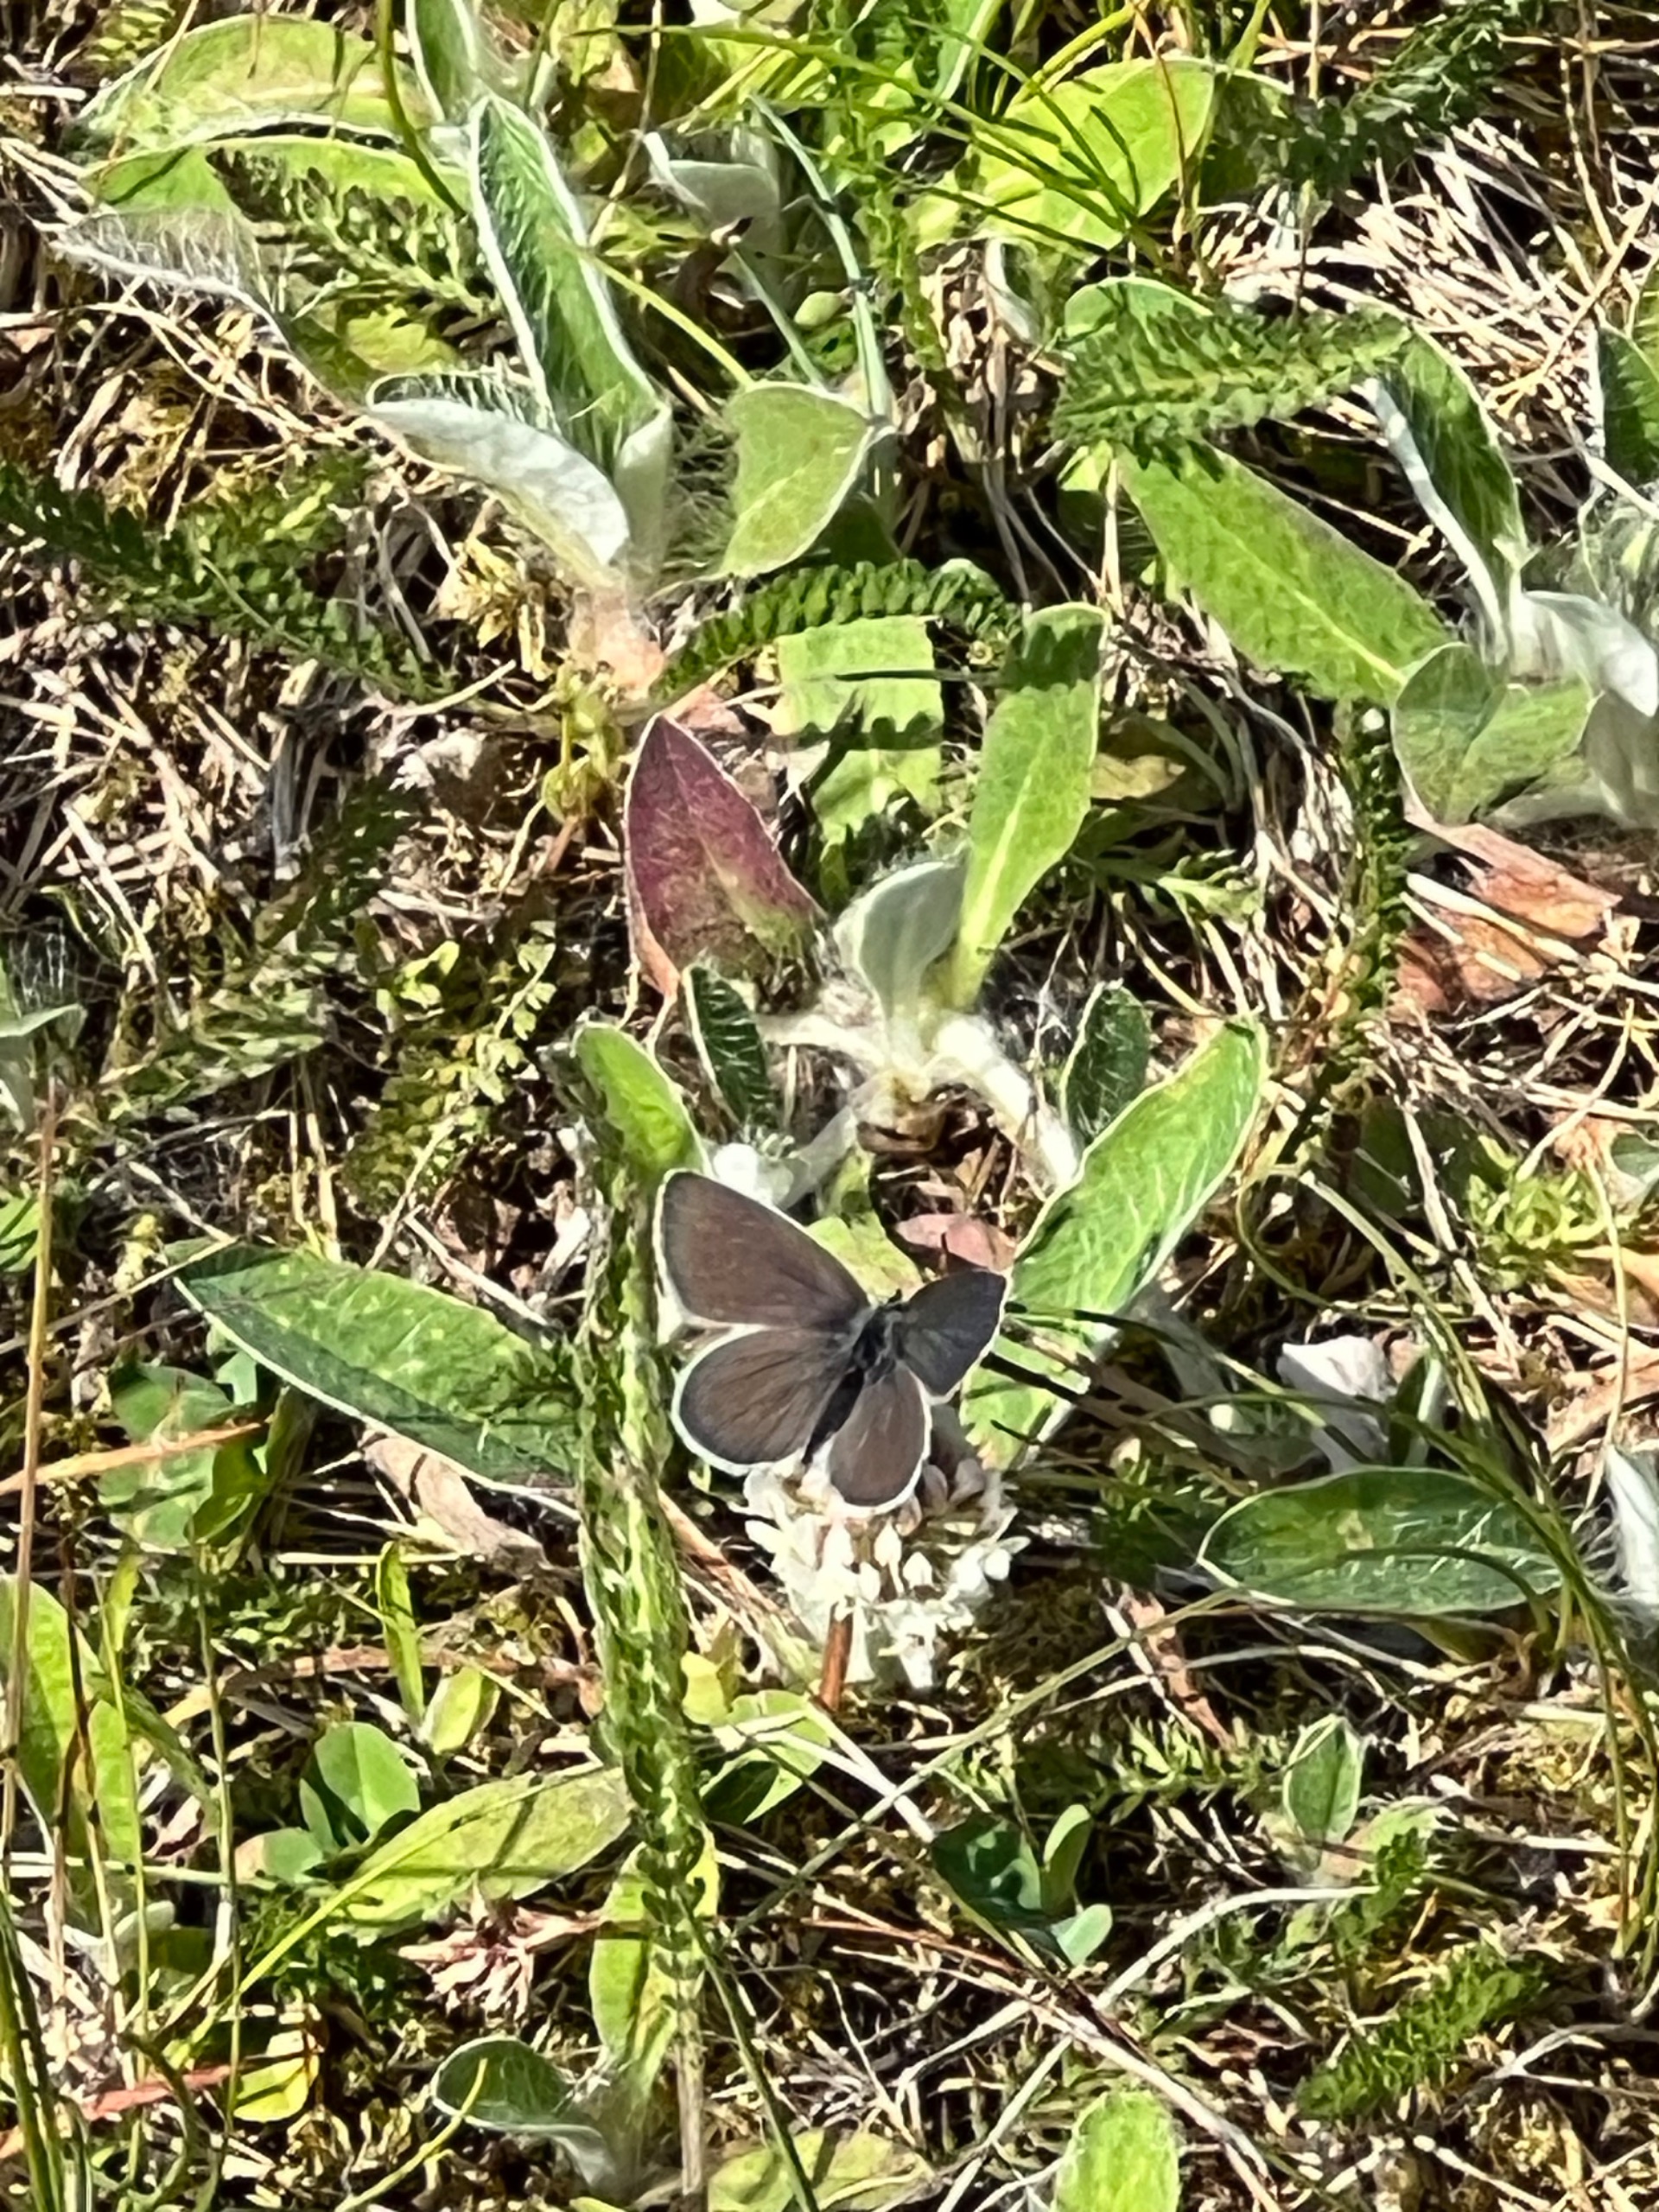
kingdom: Animalia
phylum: Arthropoda
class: Insecta
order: Lepidoptera
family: Lycaenidae
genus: Cupido
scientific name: Cupido minimus
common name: Dværgblåfugl
